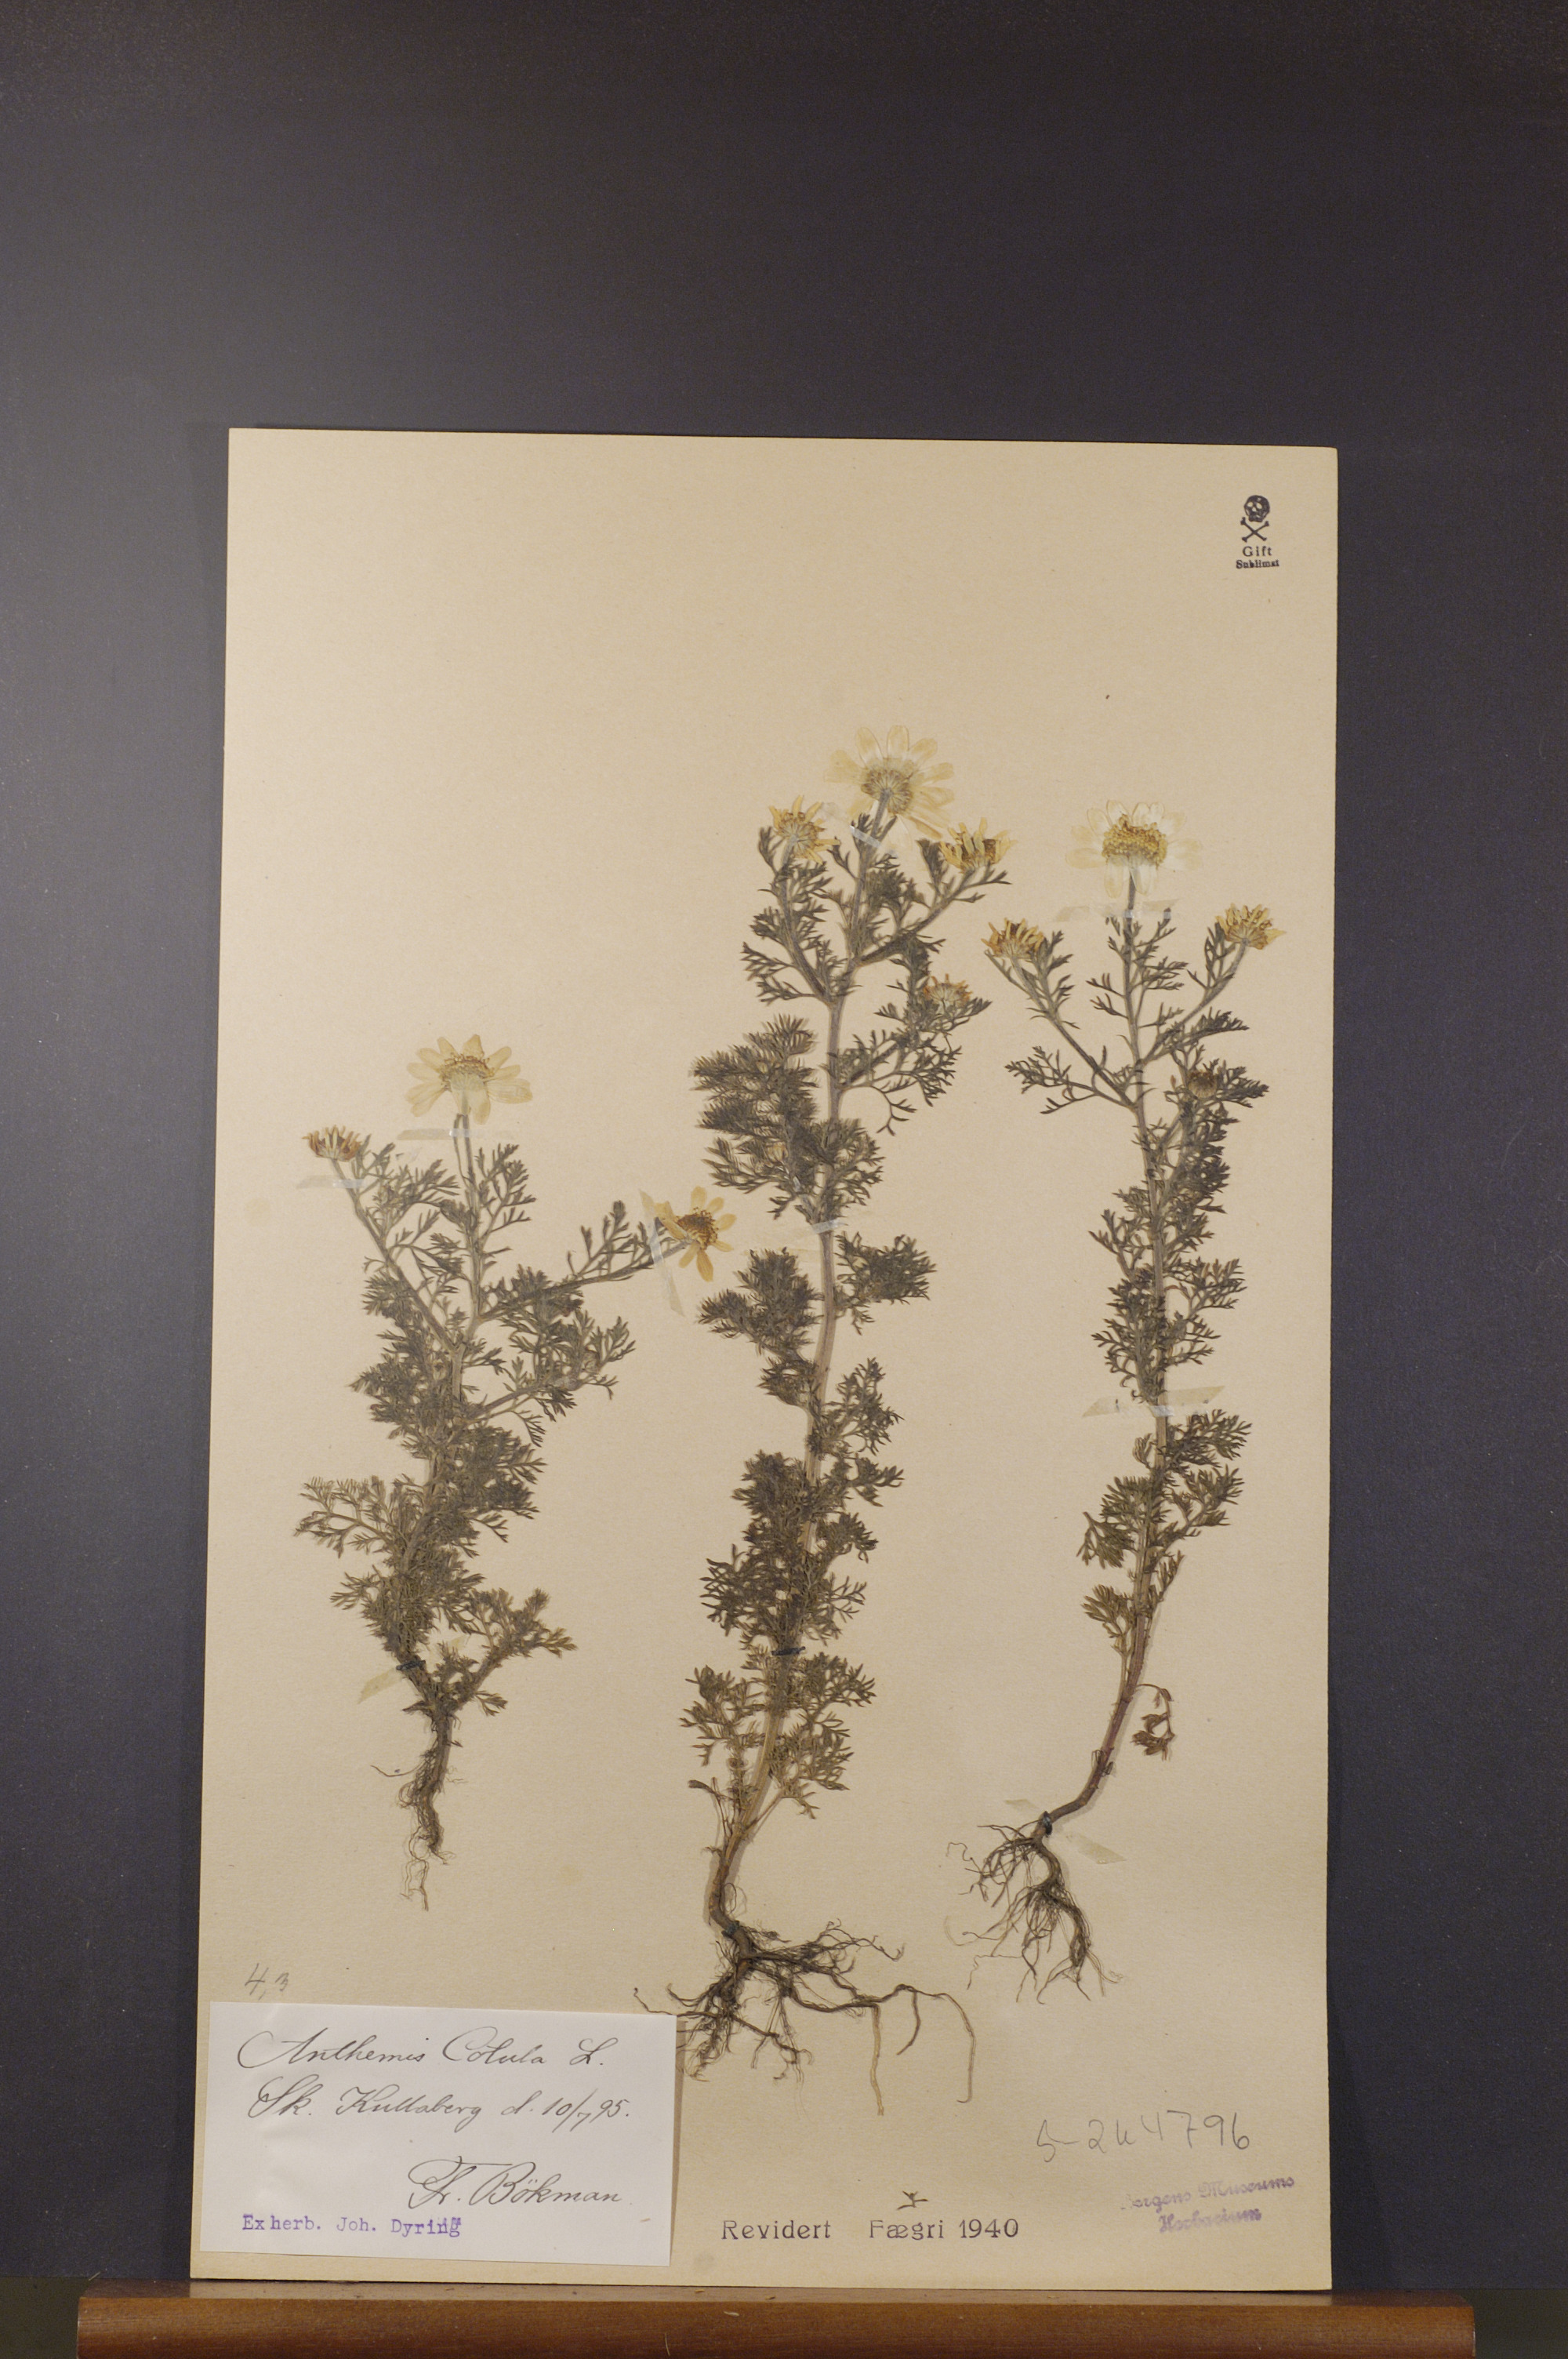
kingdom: Plantae
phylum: Tracheophyta
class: Magnoliopsida
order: Asterales
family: Asteraceae
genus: Anthemis
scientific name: Anthemis cotula
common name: Stinking chamomile
